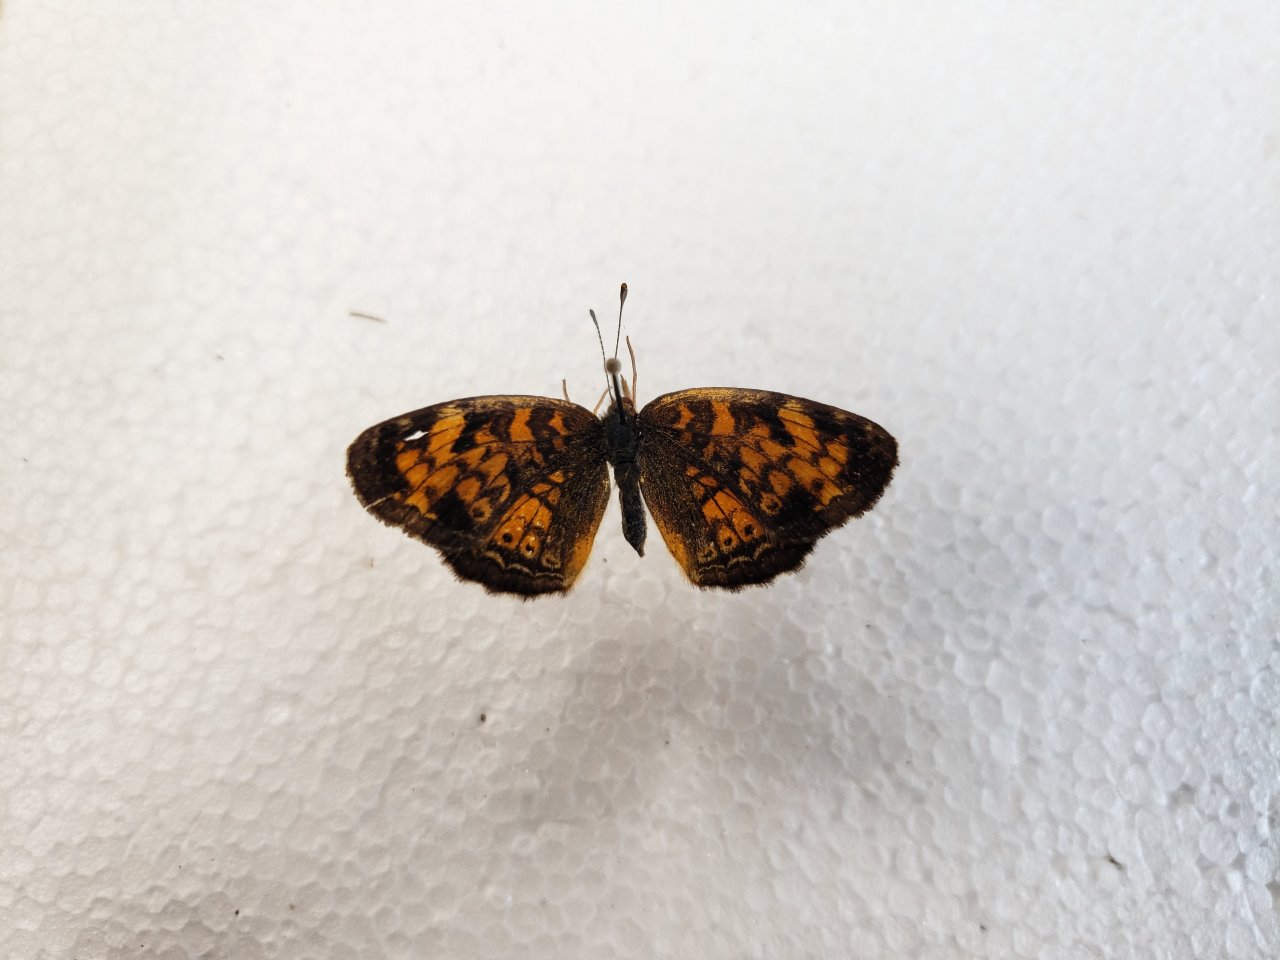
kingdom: Animalia
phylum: Arthropoda
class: Insecta
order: Lepidoptera
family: Nymphalidae
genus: Phyciodes
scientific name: Phyciodes tharos
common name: Northern Crescent
